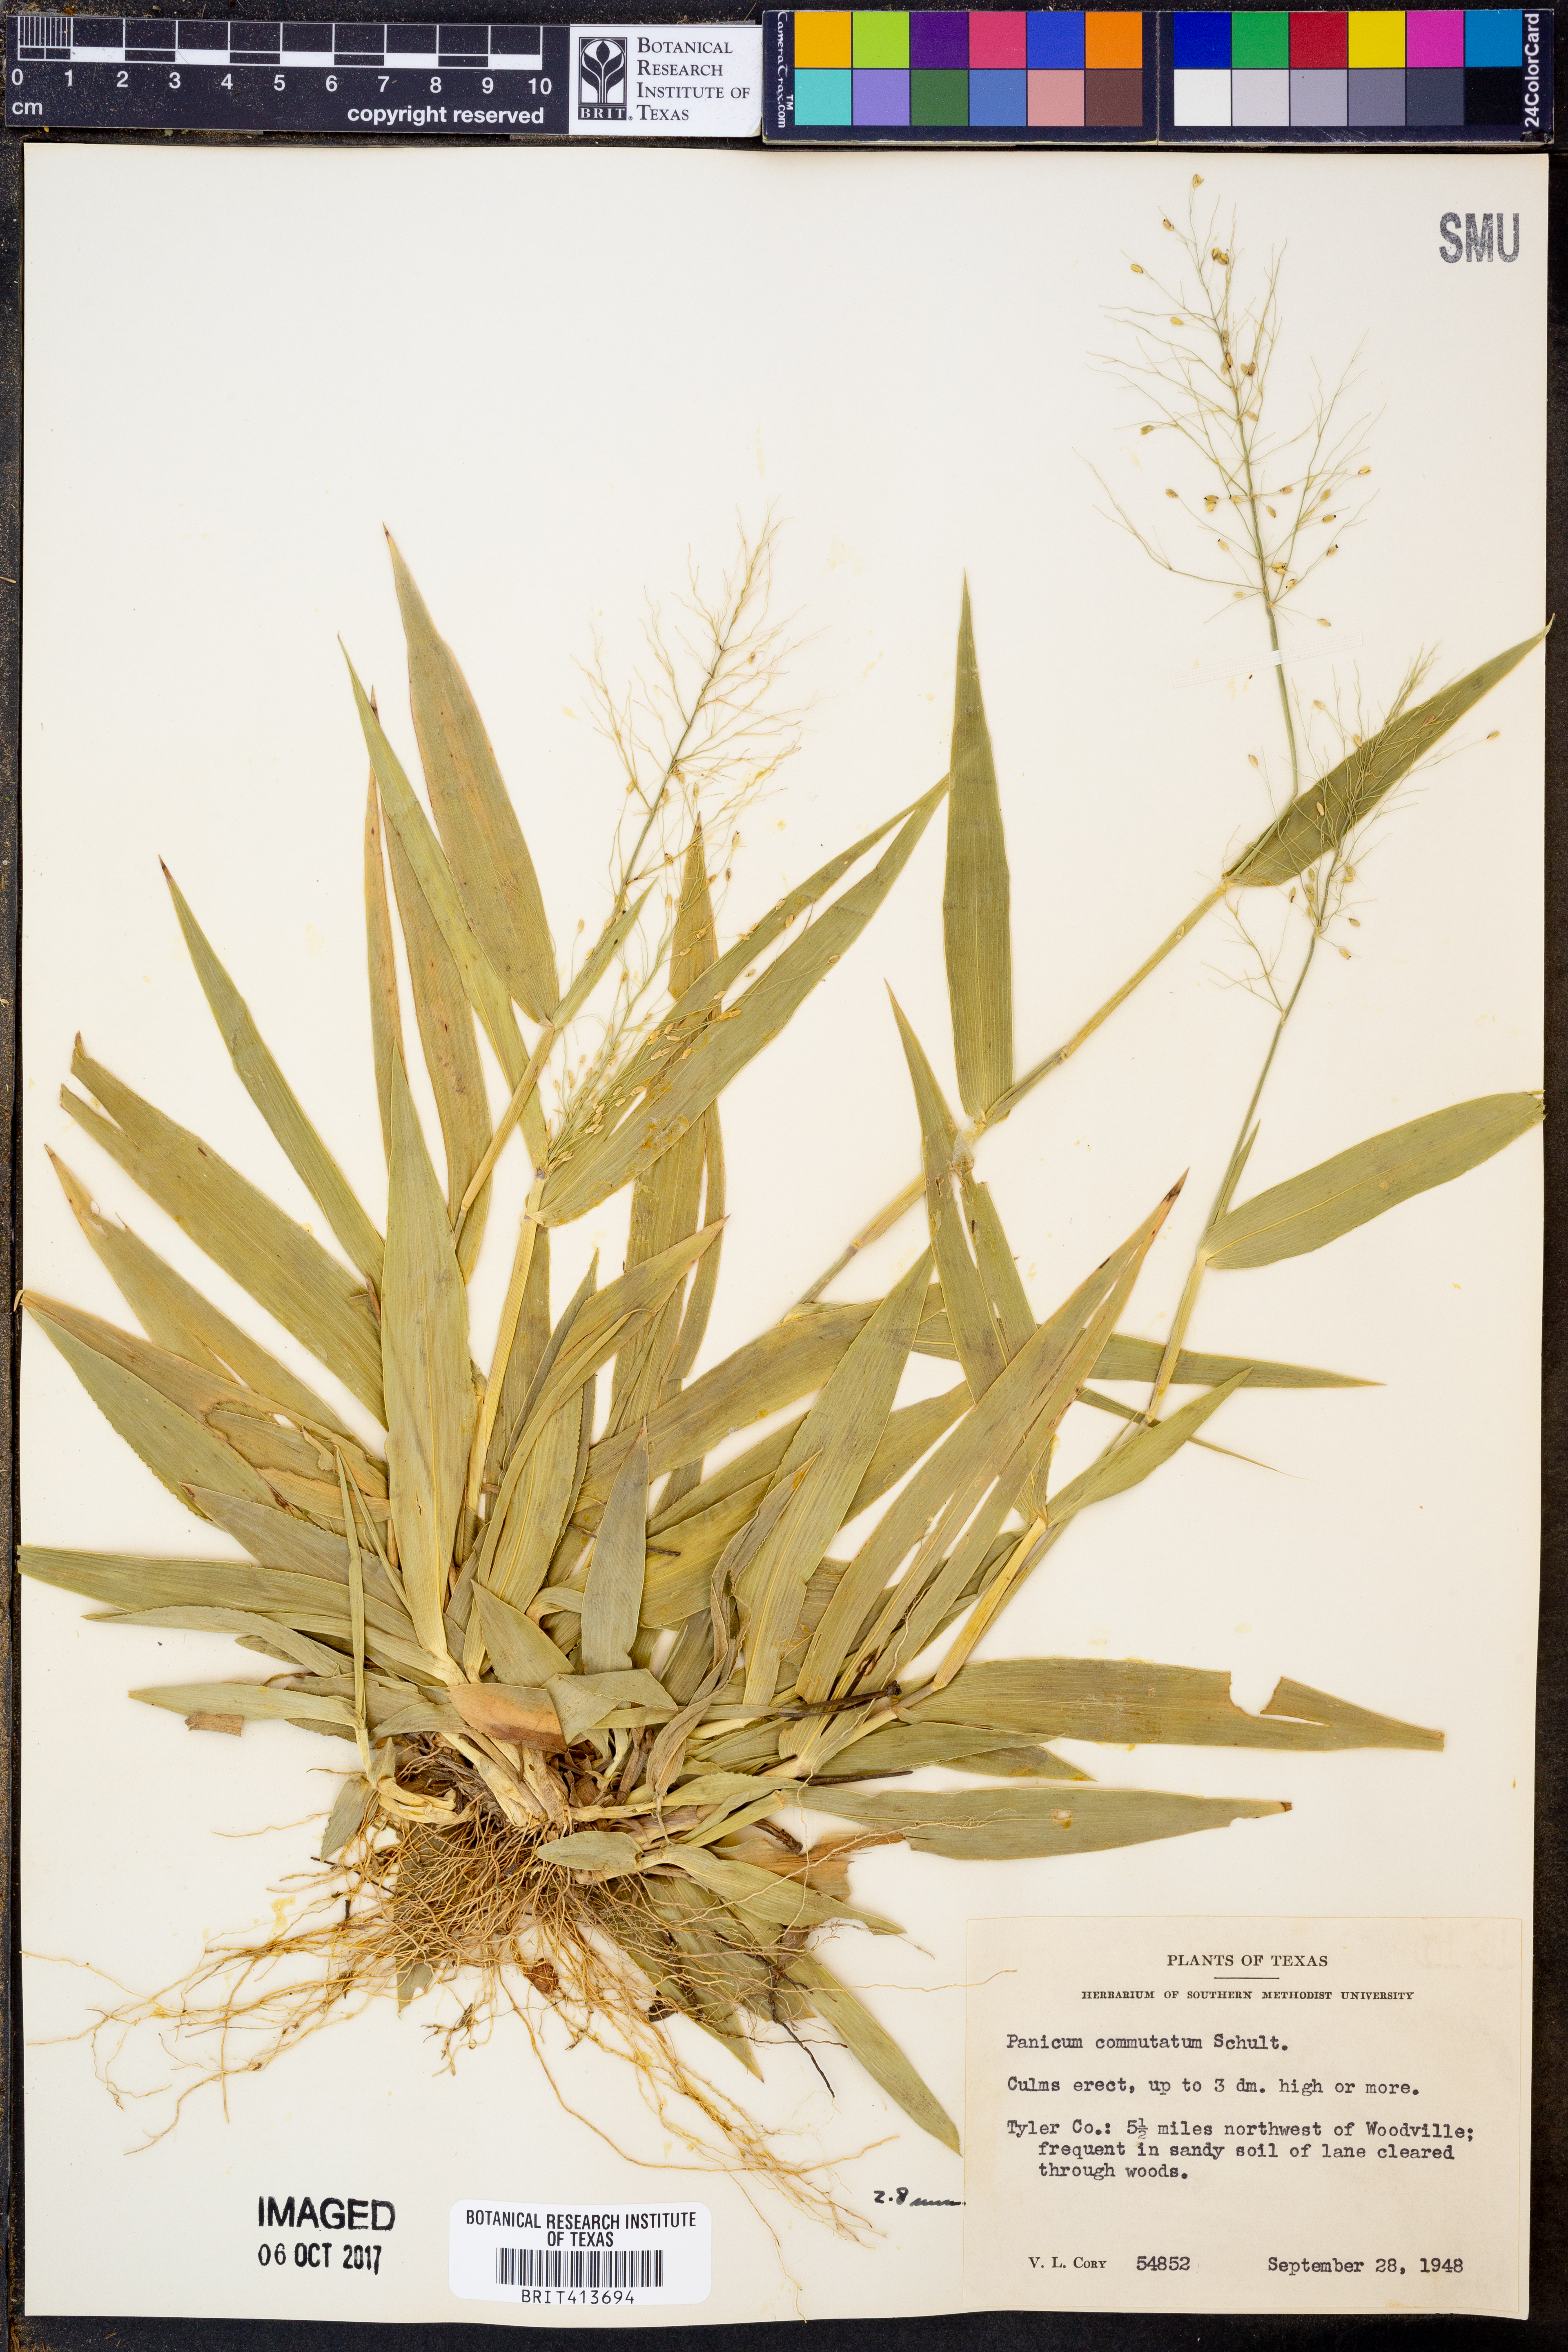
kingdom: Plantae
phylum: Tracheophyta
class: Liliopsida
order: Poales
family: Poaceae
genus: Dichanthelium
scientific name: Dichanthelium commutatum
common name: Variable witchgrass
